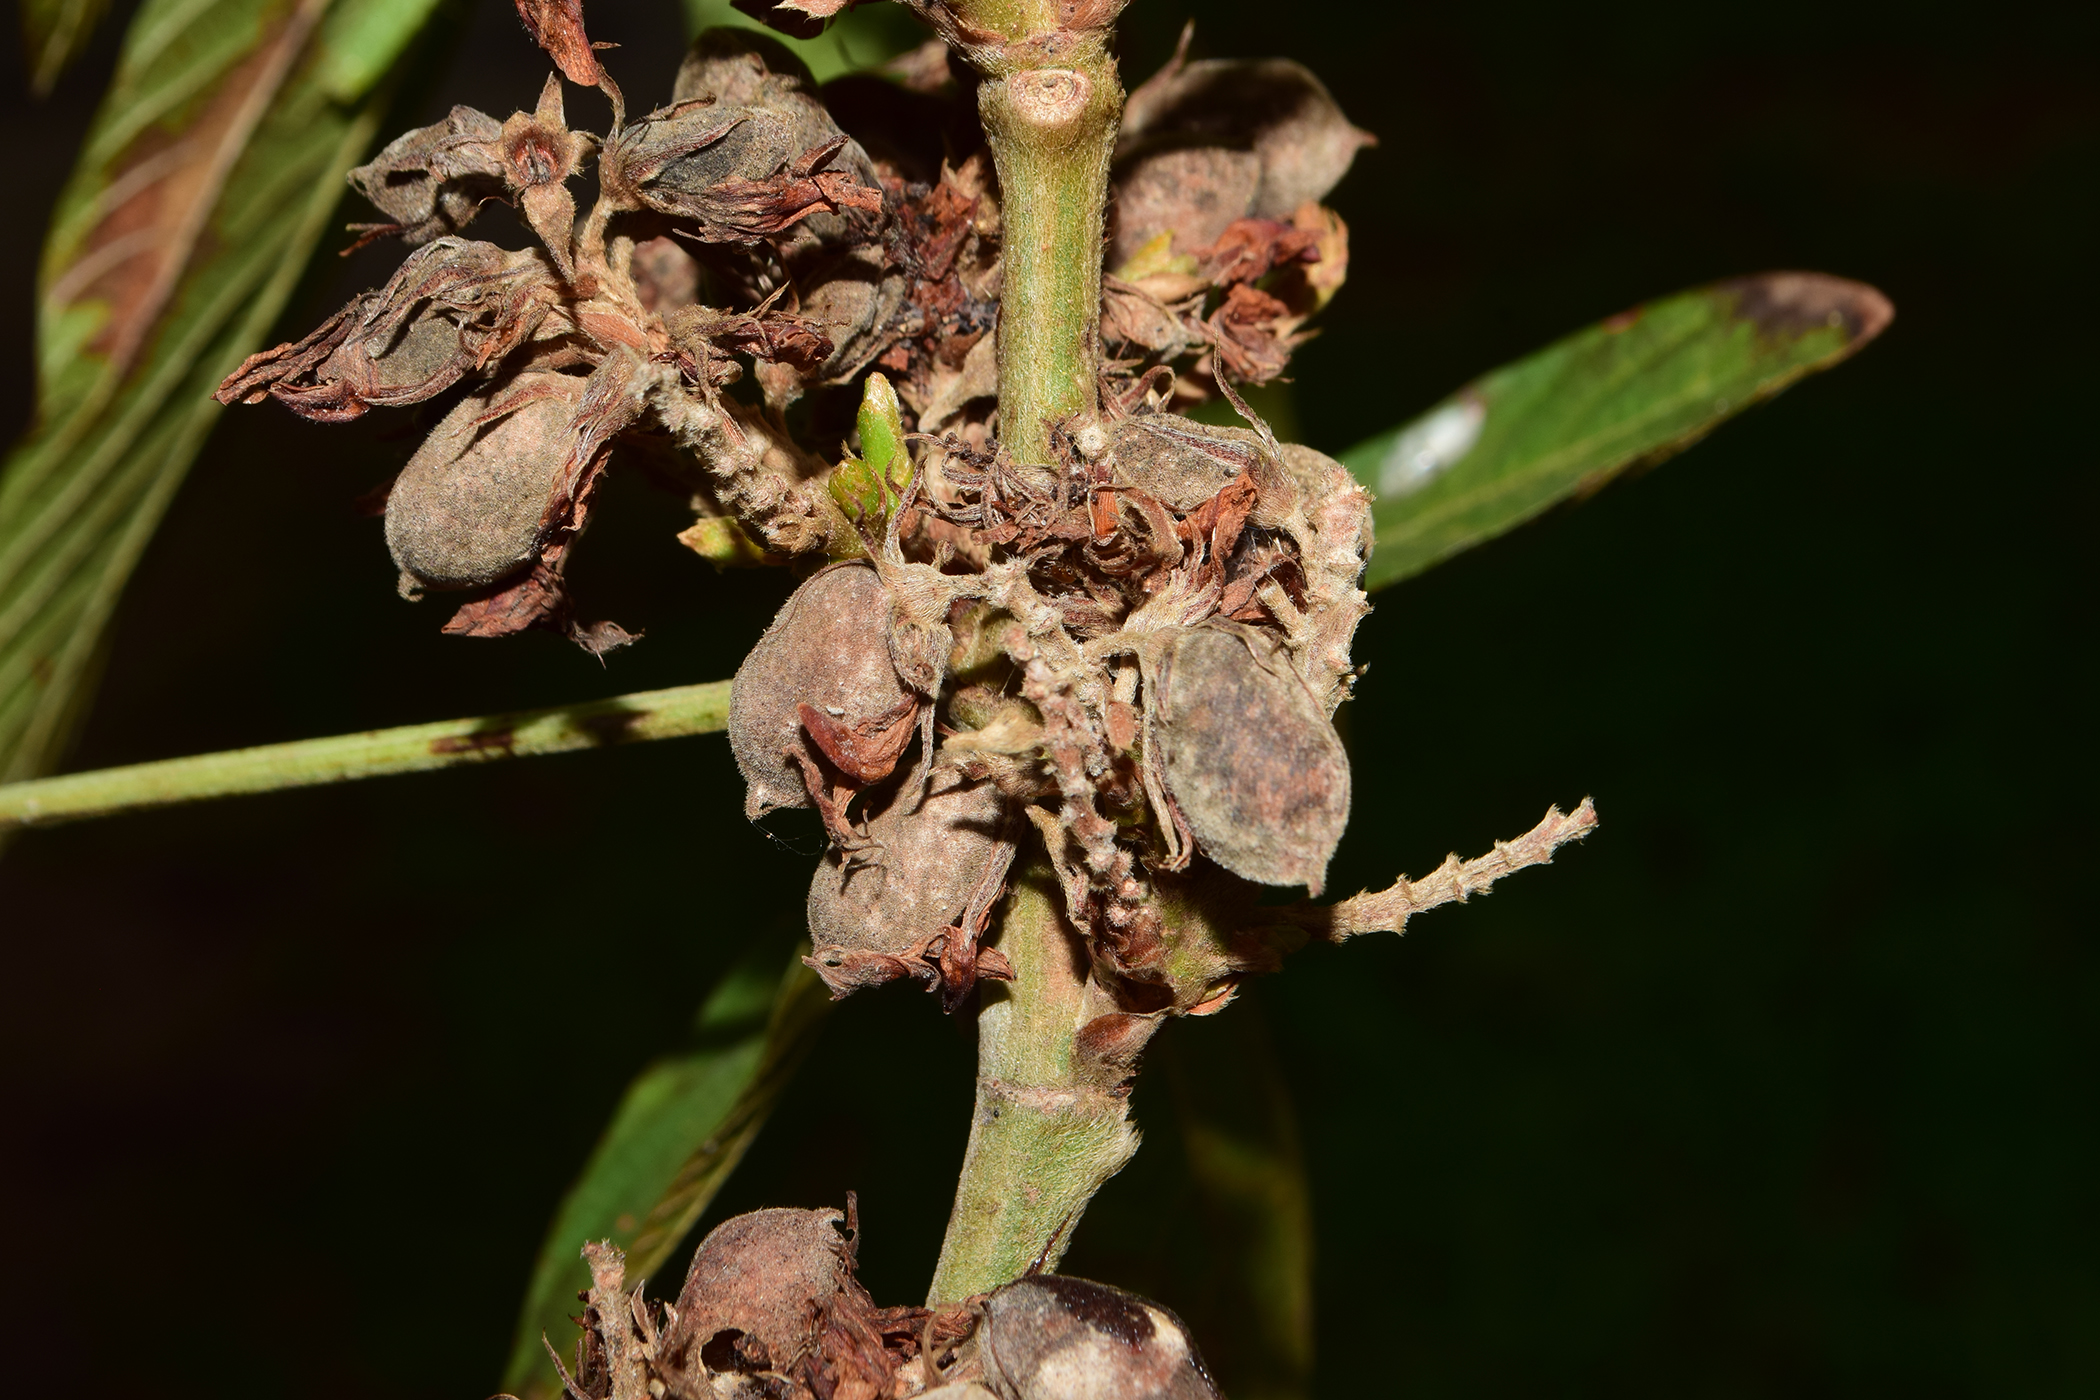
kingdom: Plantae
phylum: Tracheophyta
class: Magnoliopsida
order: Fabales
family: Fabaceae
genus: Flemingia
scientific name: Flemingia macrophylla
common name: Flemingia
